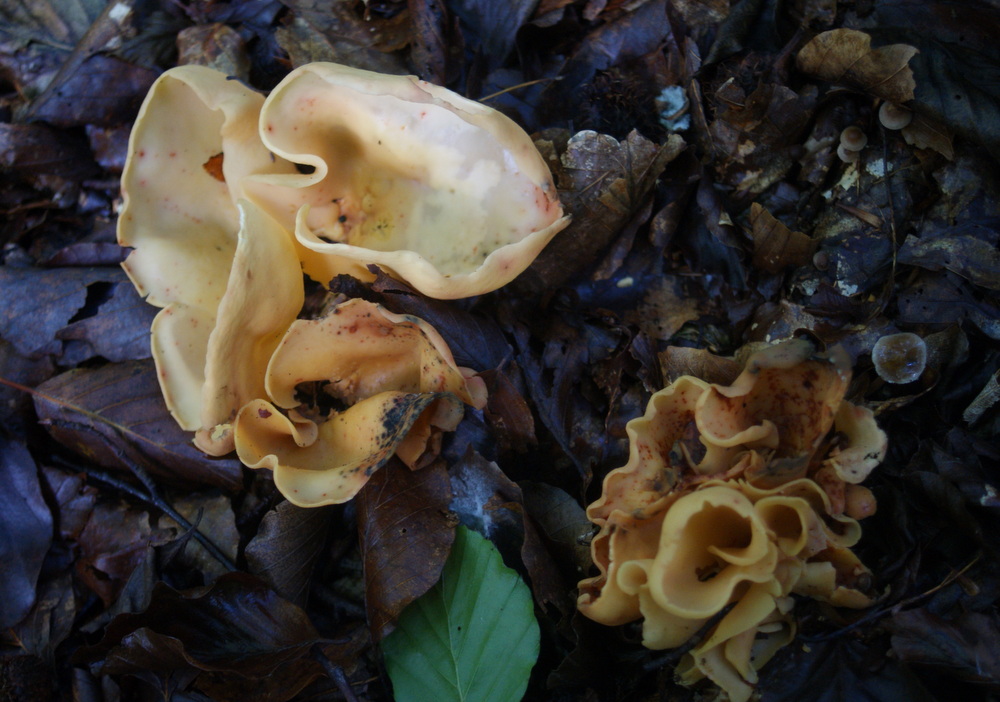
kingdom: Fungi
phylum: Ascomycota
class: Pezizomycetes
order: Pezizales
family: Otideaceae
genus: Otidea
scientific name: Otidea onotica
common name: æsel-ørebæger
